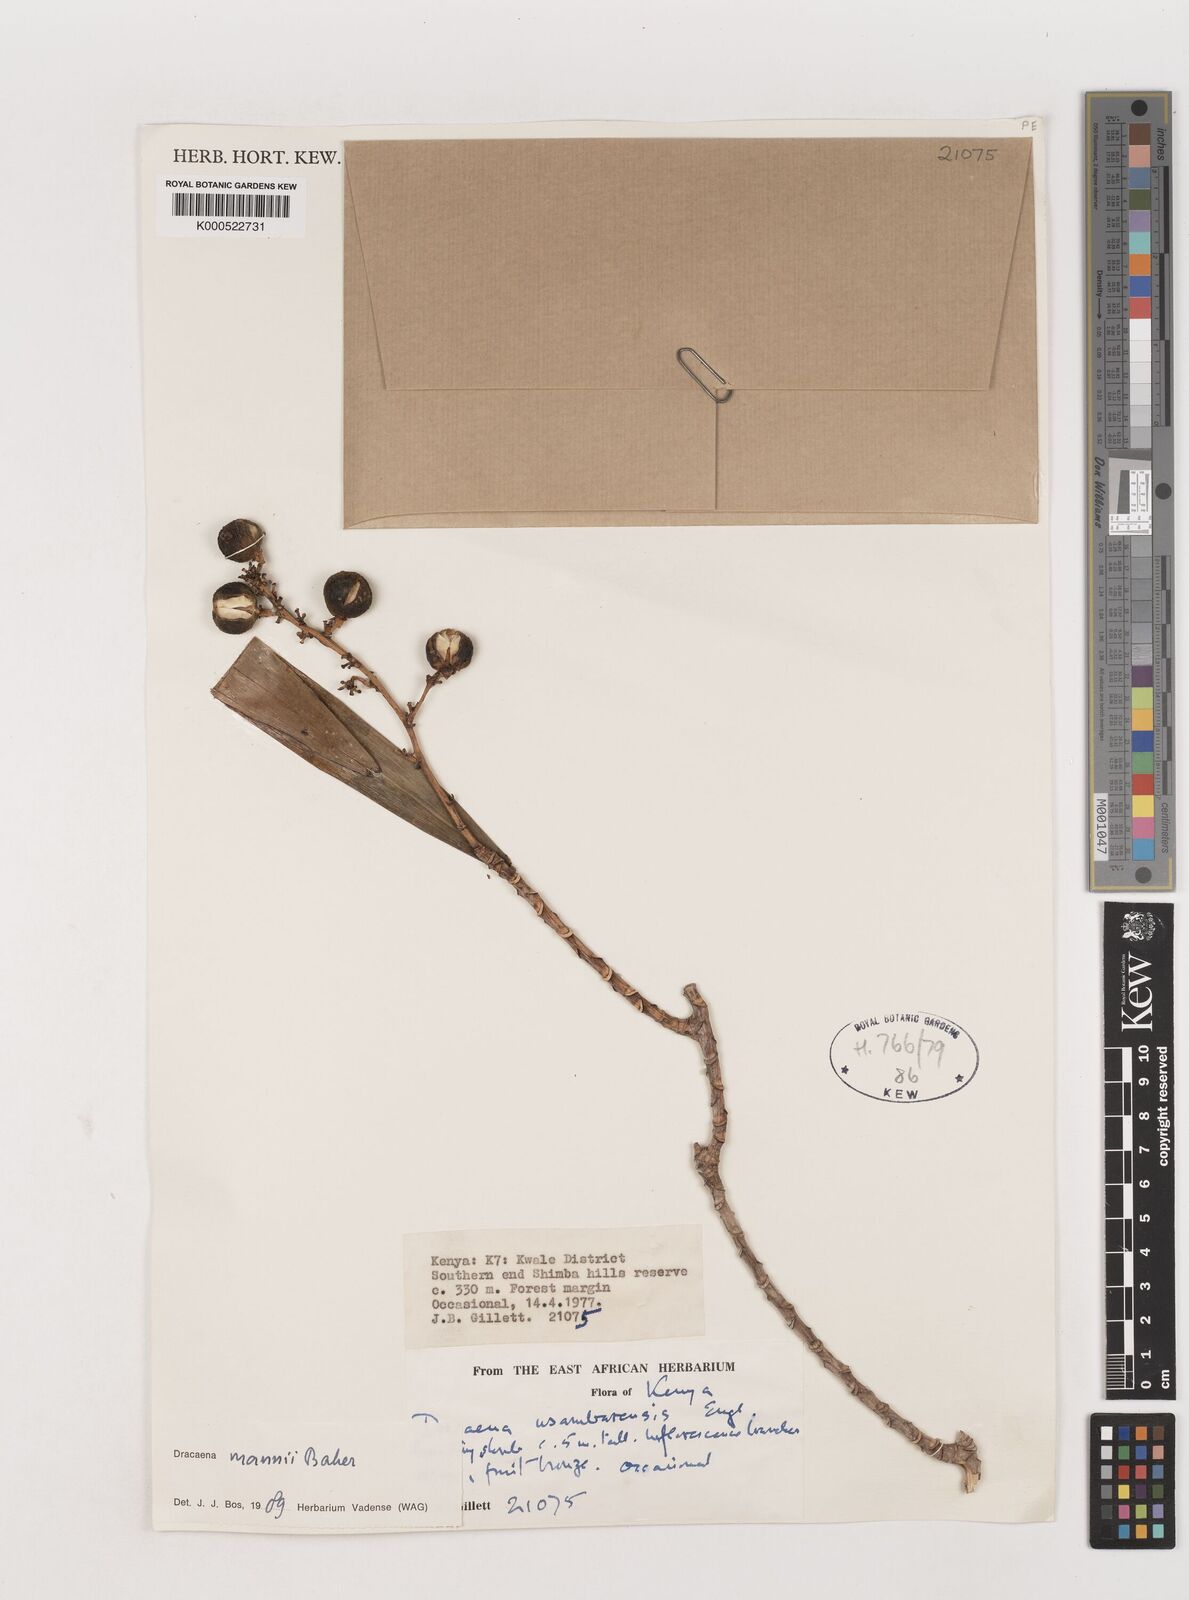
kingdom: Plantae
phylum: Tracheophyta
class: Liliopsida
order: Asparagales
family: Asparagaceae
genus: Dracaena
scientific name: Dracaena mannii
